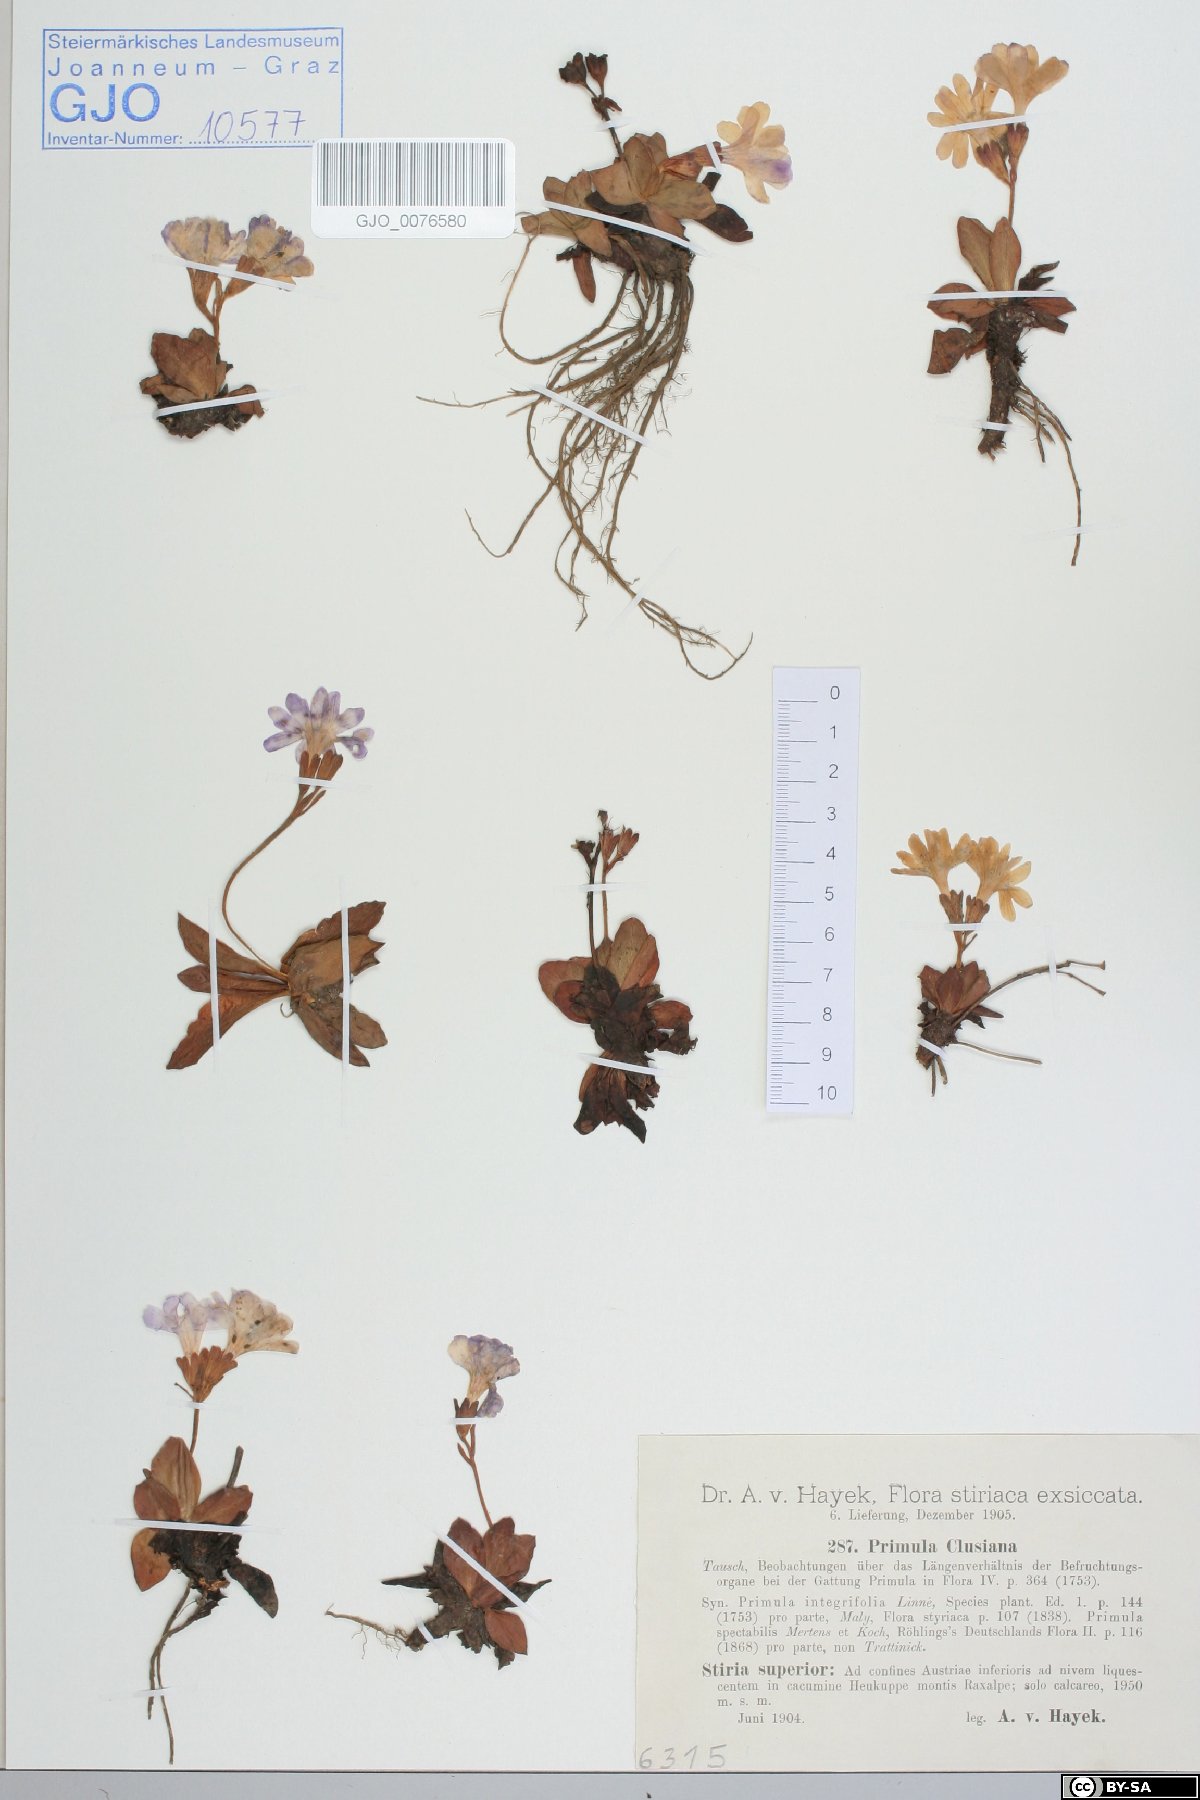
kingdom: Plantae
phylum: Tracheophyta
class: Magnoliopsida
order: Ericales
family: Primulaceae
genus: Primula
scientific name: Primula clusiana
